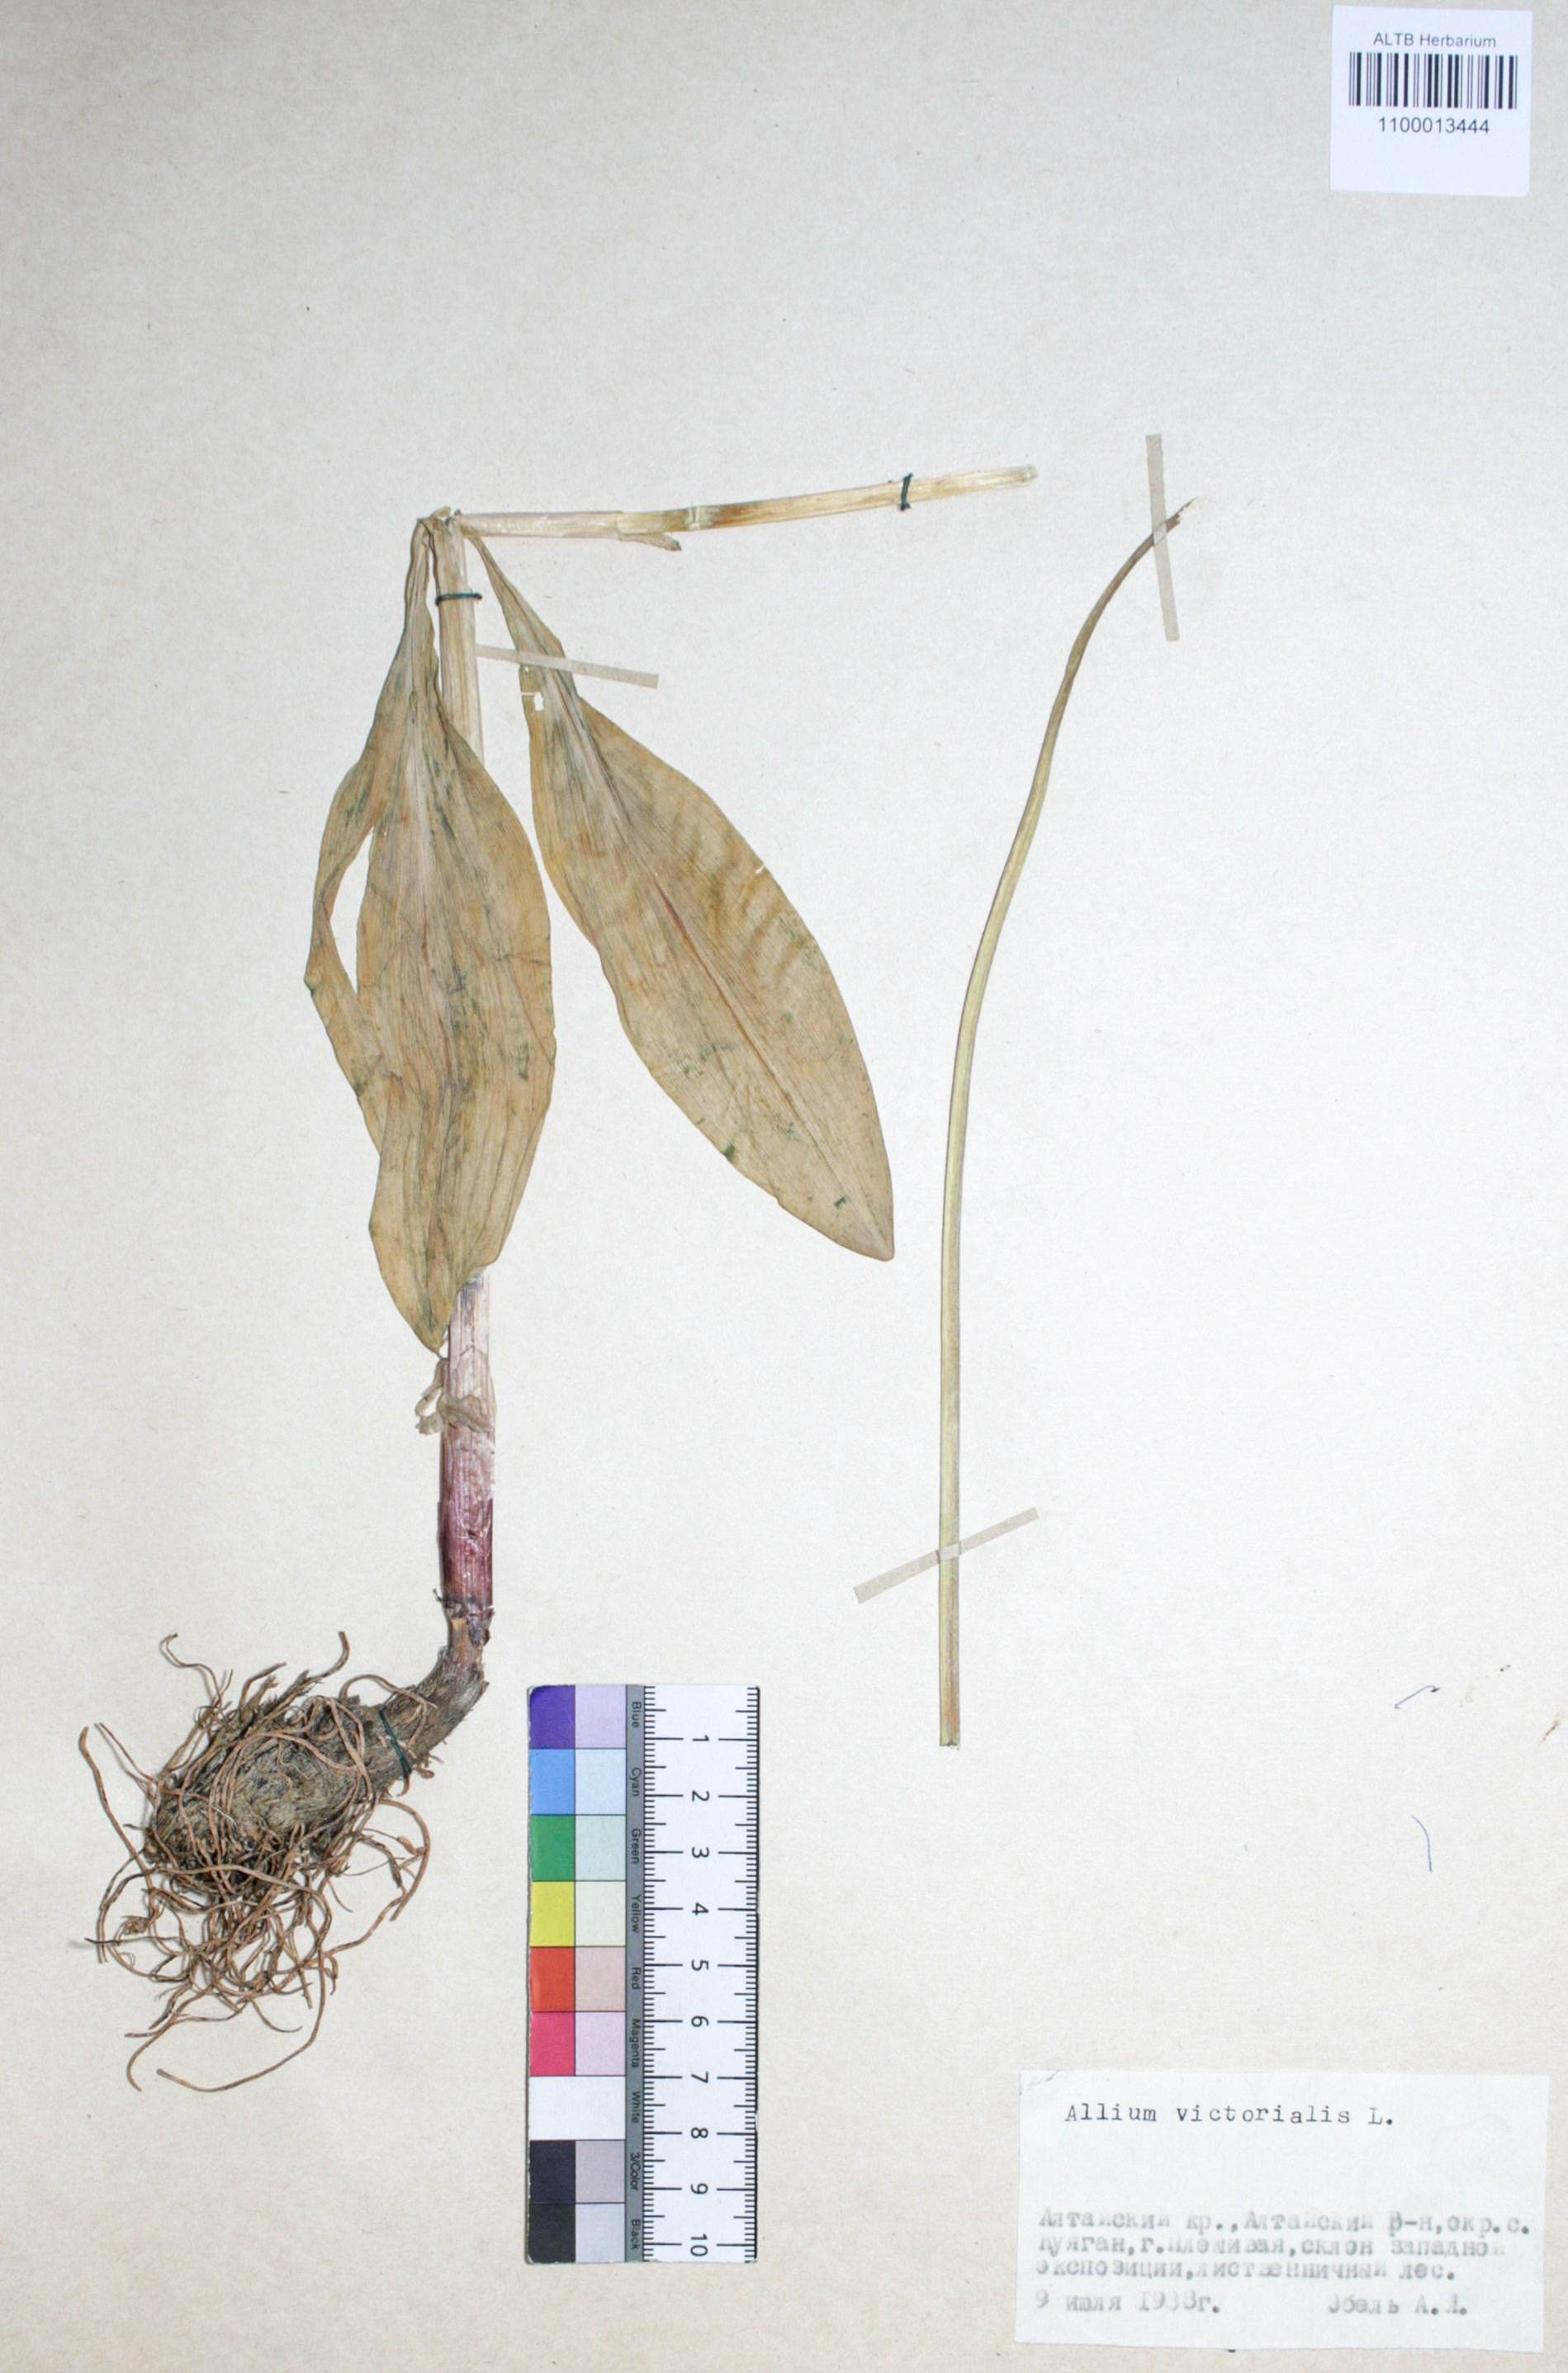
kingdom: Plantae
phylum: Tracheophyta
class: Liliopsida
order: Asparagales
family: Amaryllidaceae
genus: Allium
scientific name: Allium victorialis
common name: Alpine leek
